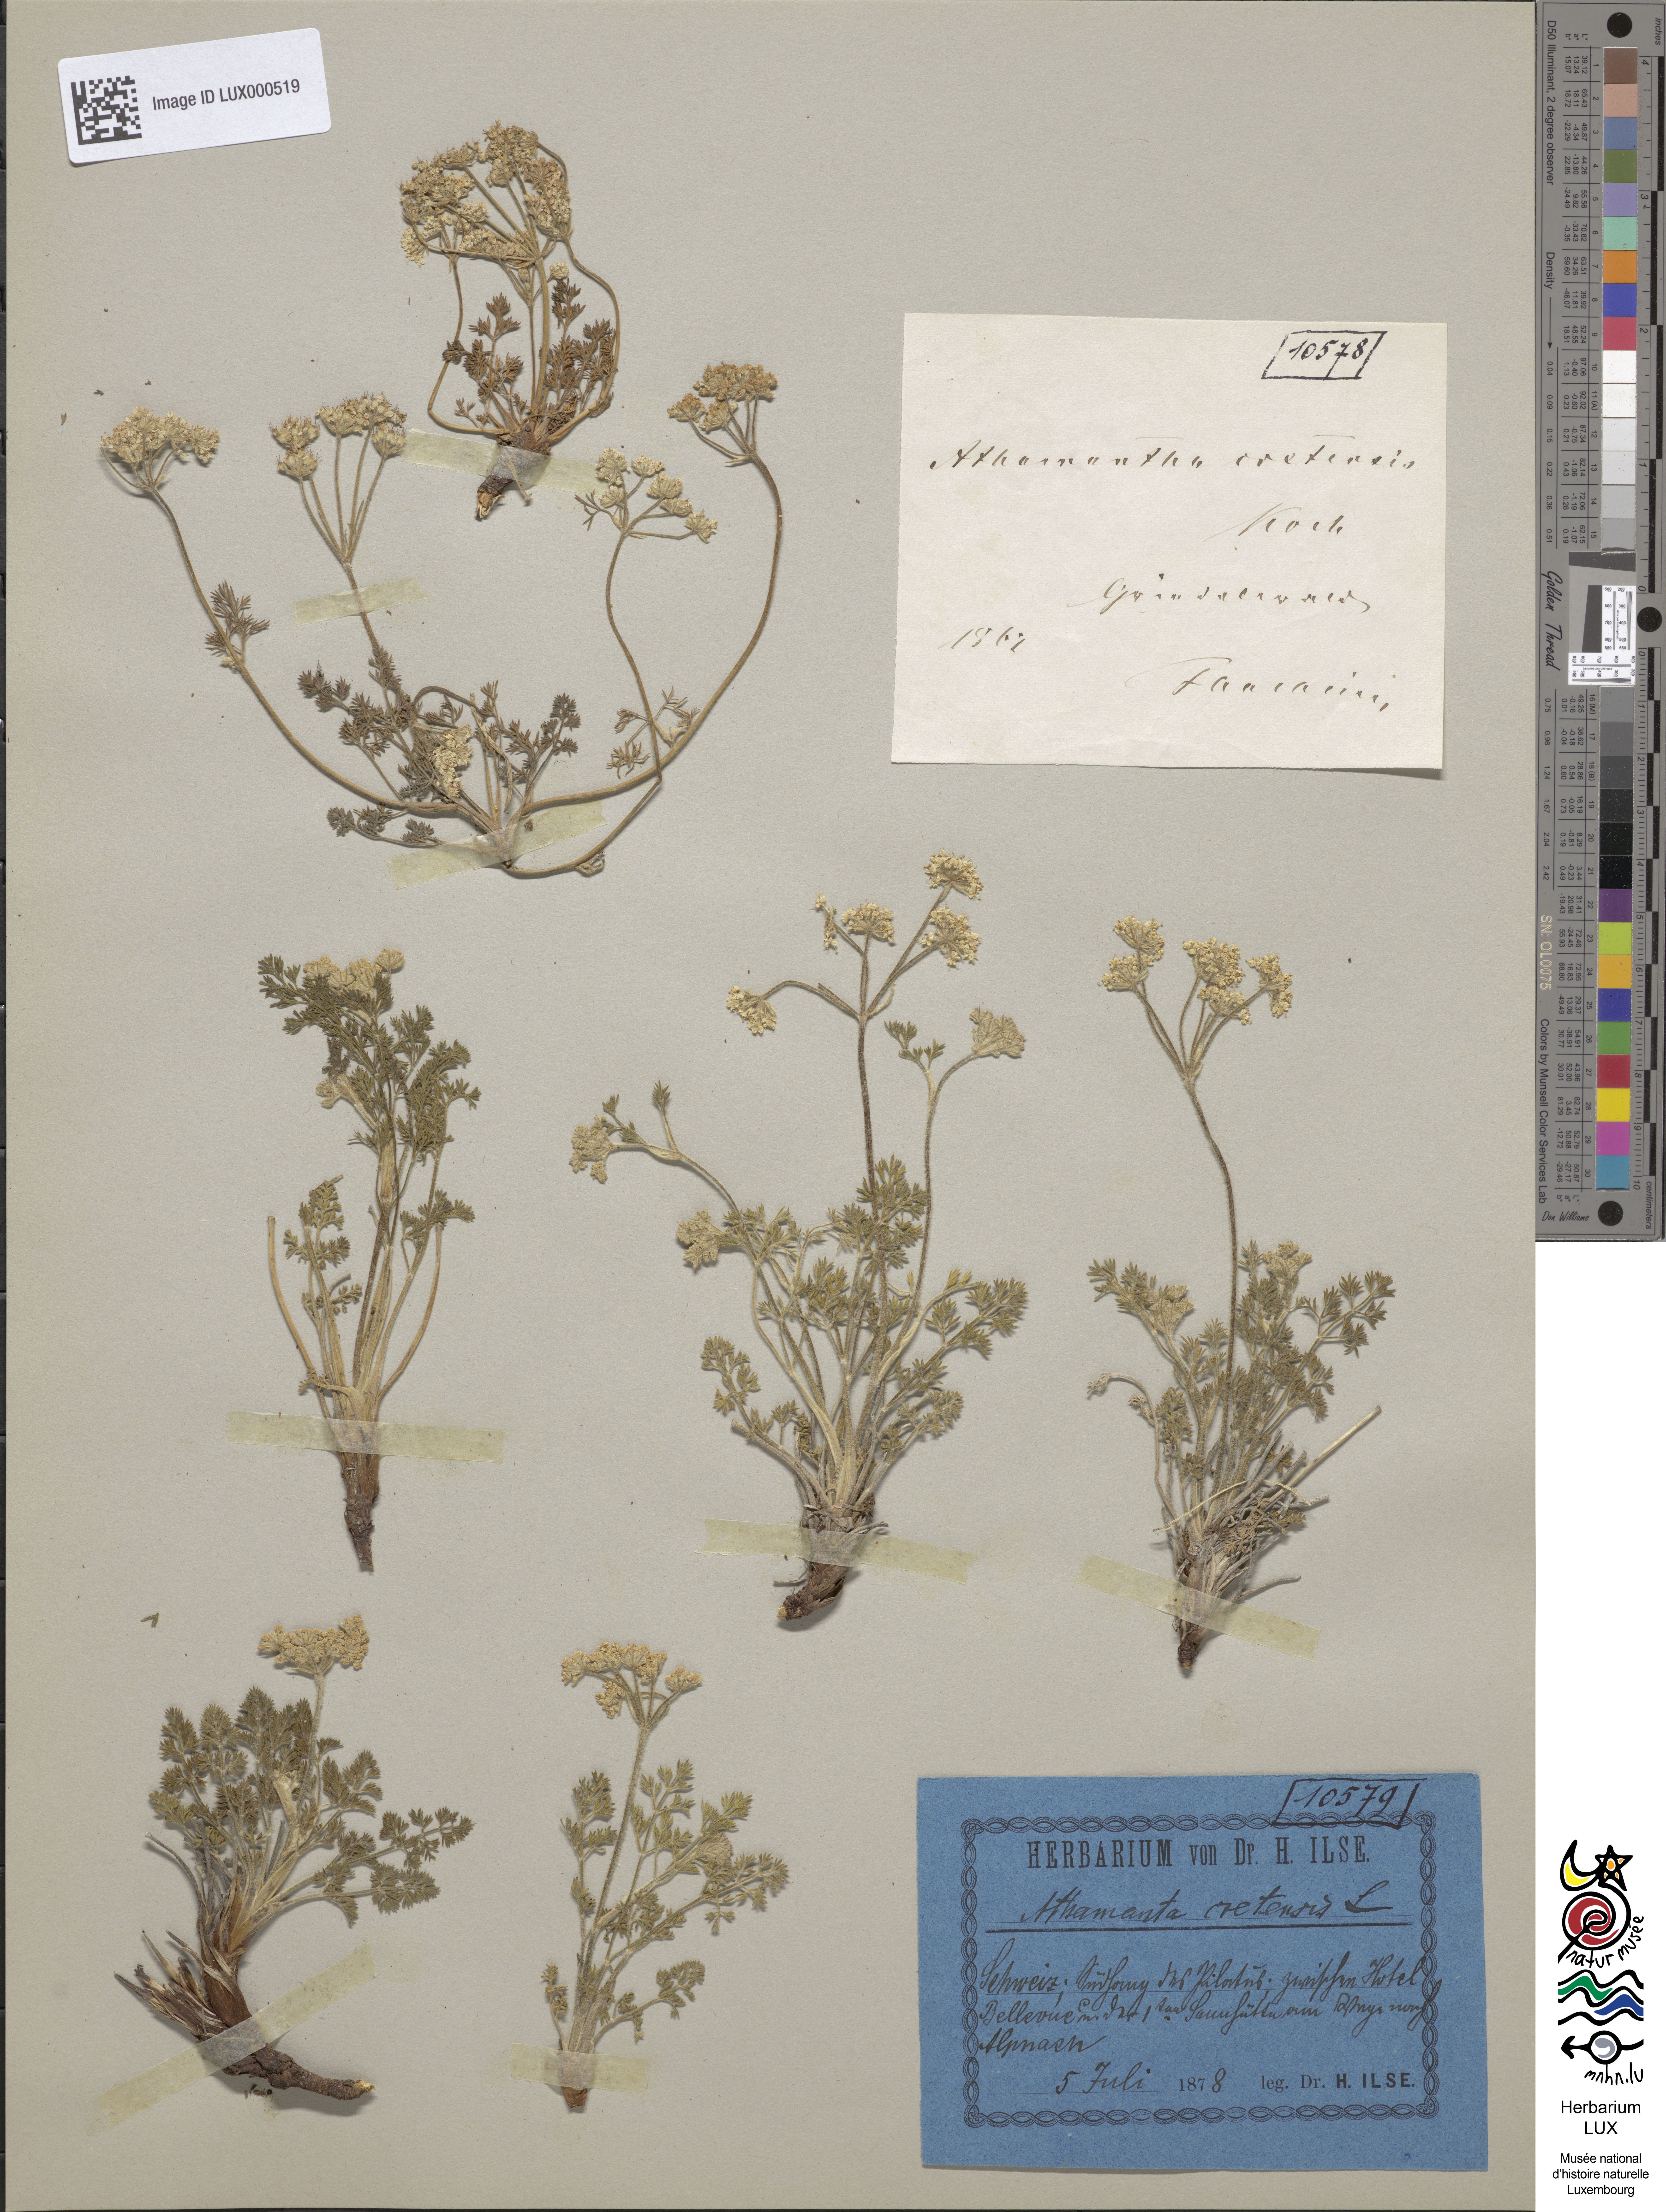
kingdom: Plantae
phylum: Tracheophyta
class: Magnoliopsida
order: Apiales
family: Apiaceae
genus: Athamanta
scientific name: Athamanta cretensis
